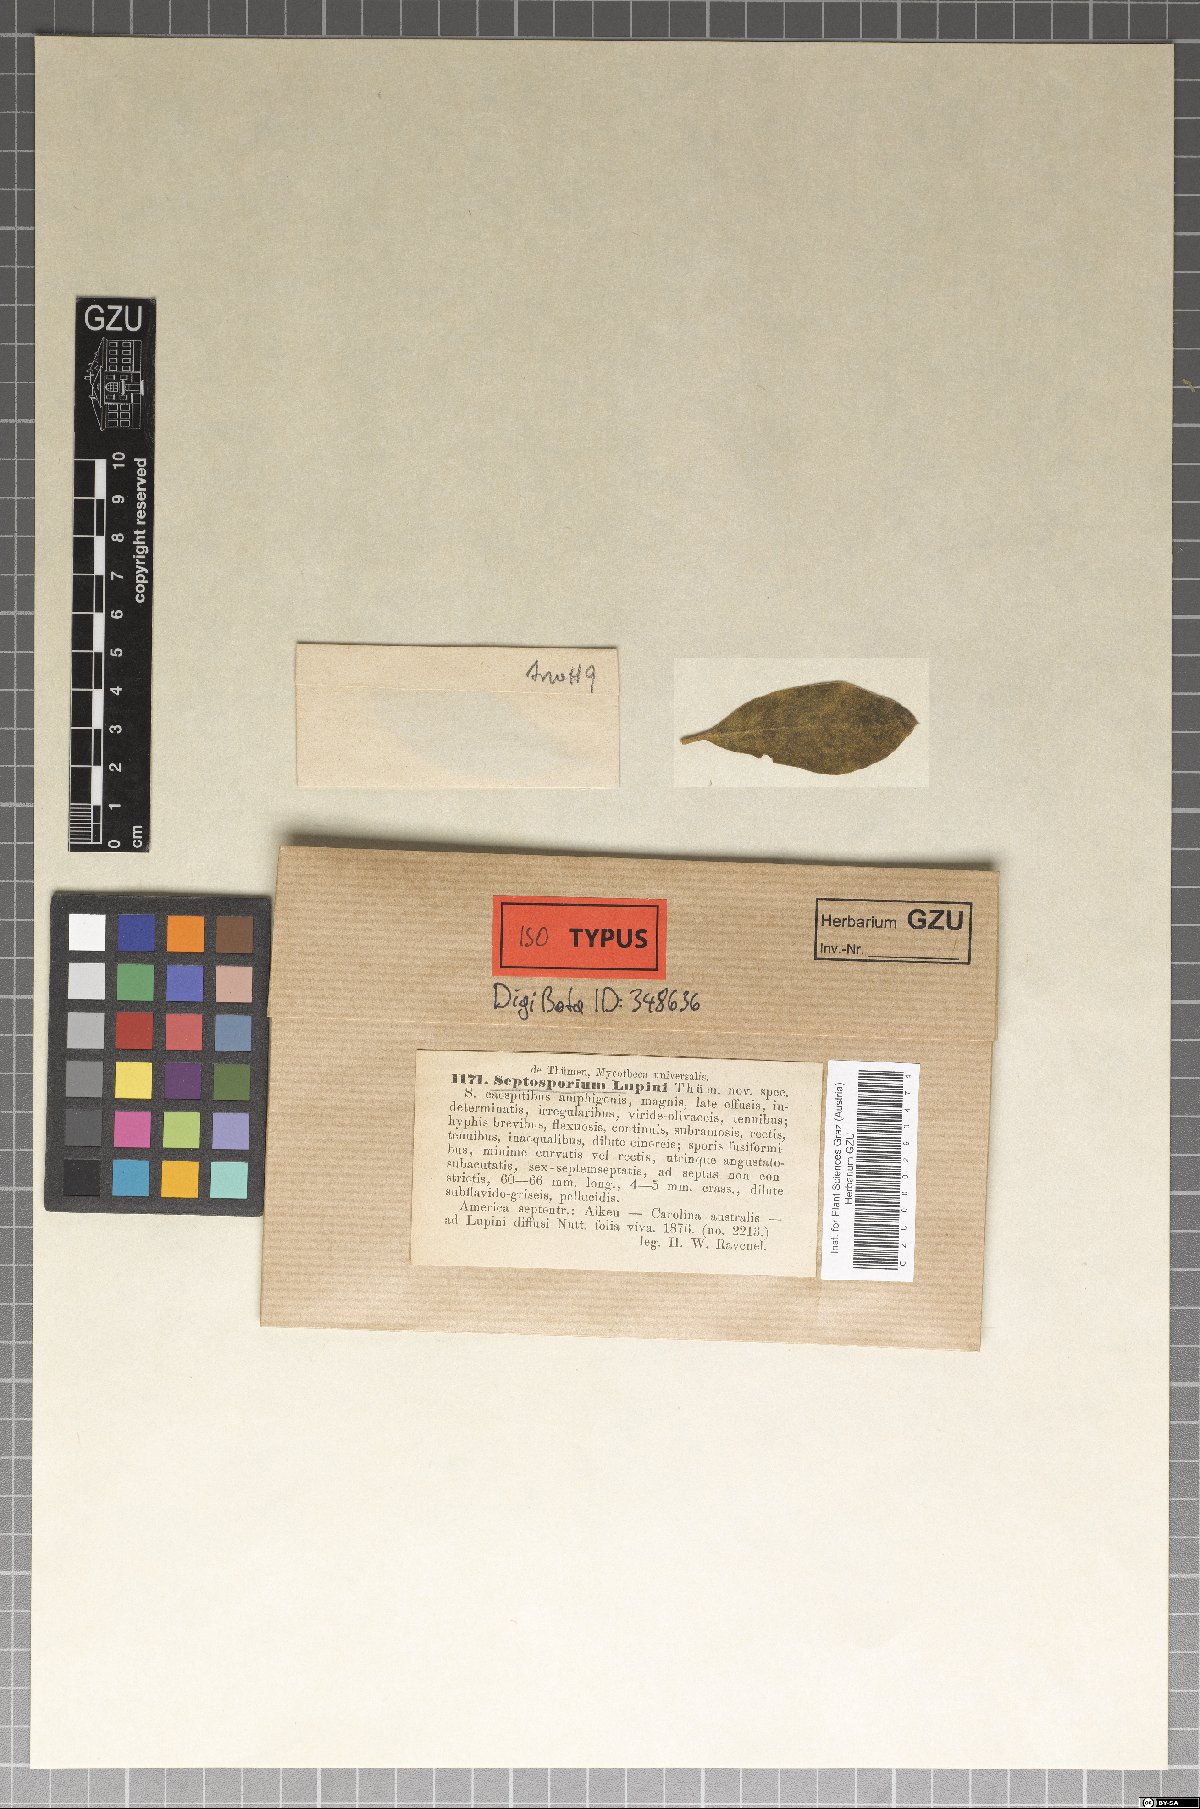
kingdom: Fungi
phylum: Ascomycota
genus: Septosporium
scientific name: Septosporium
